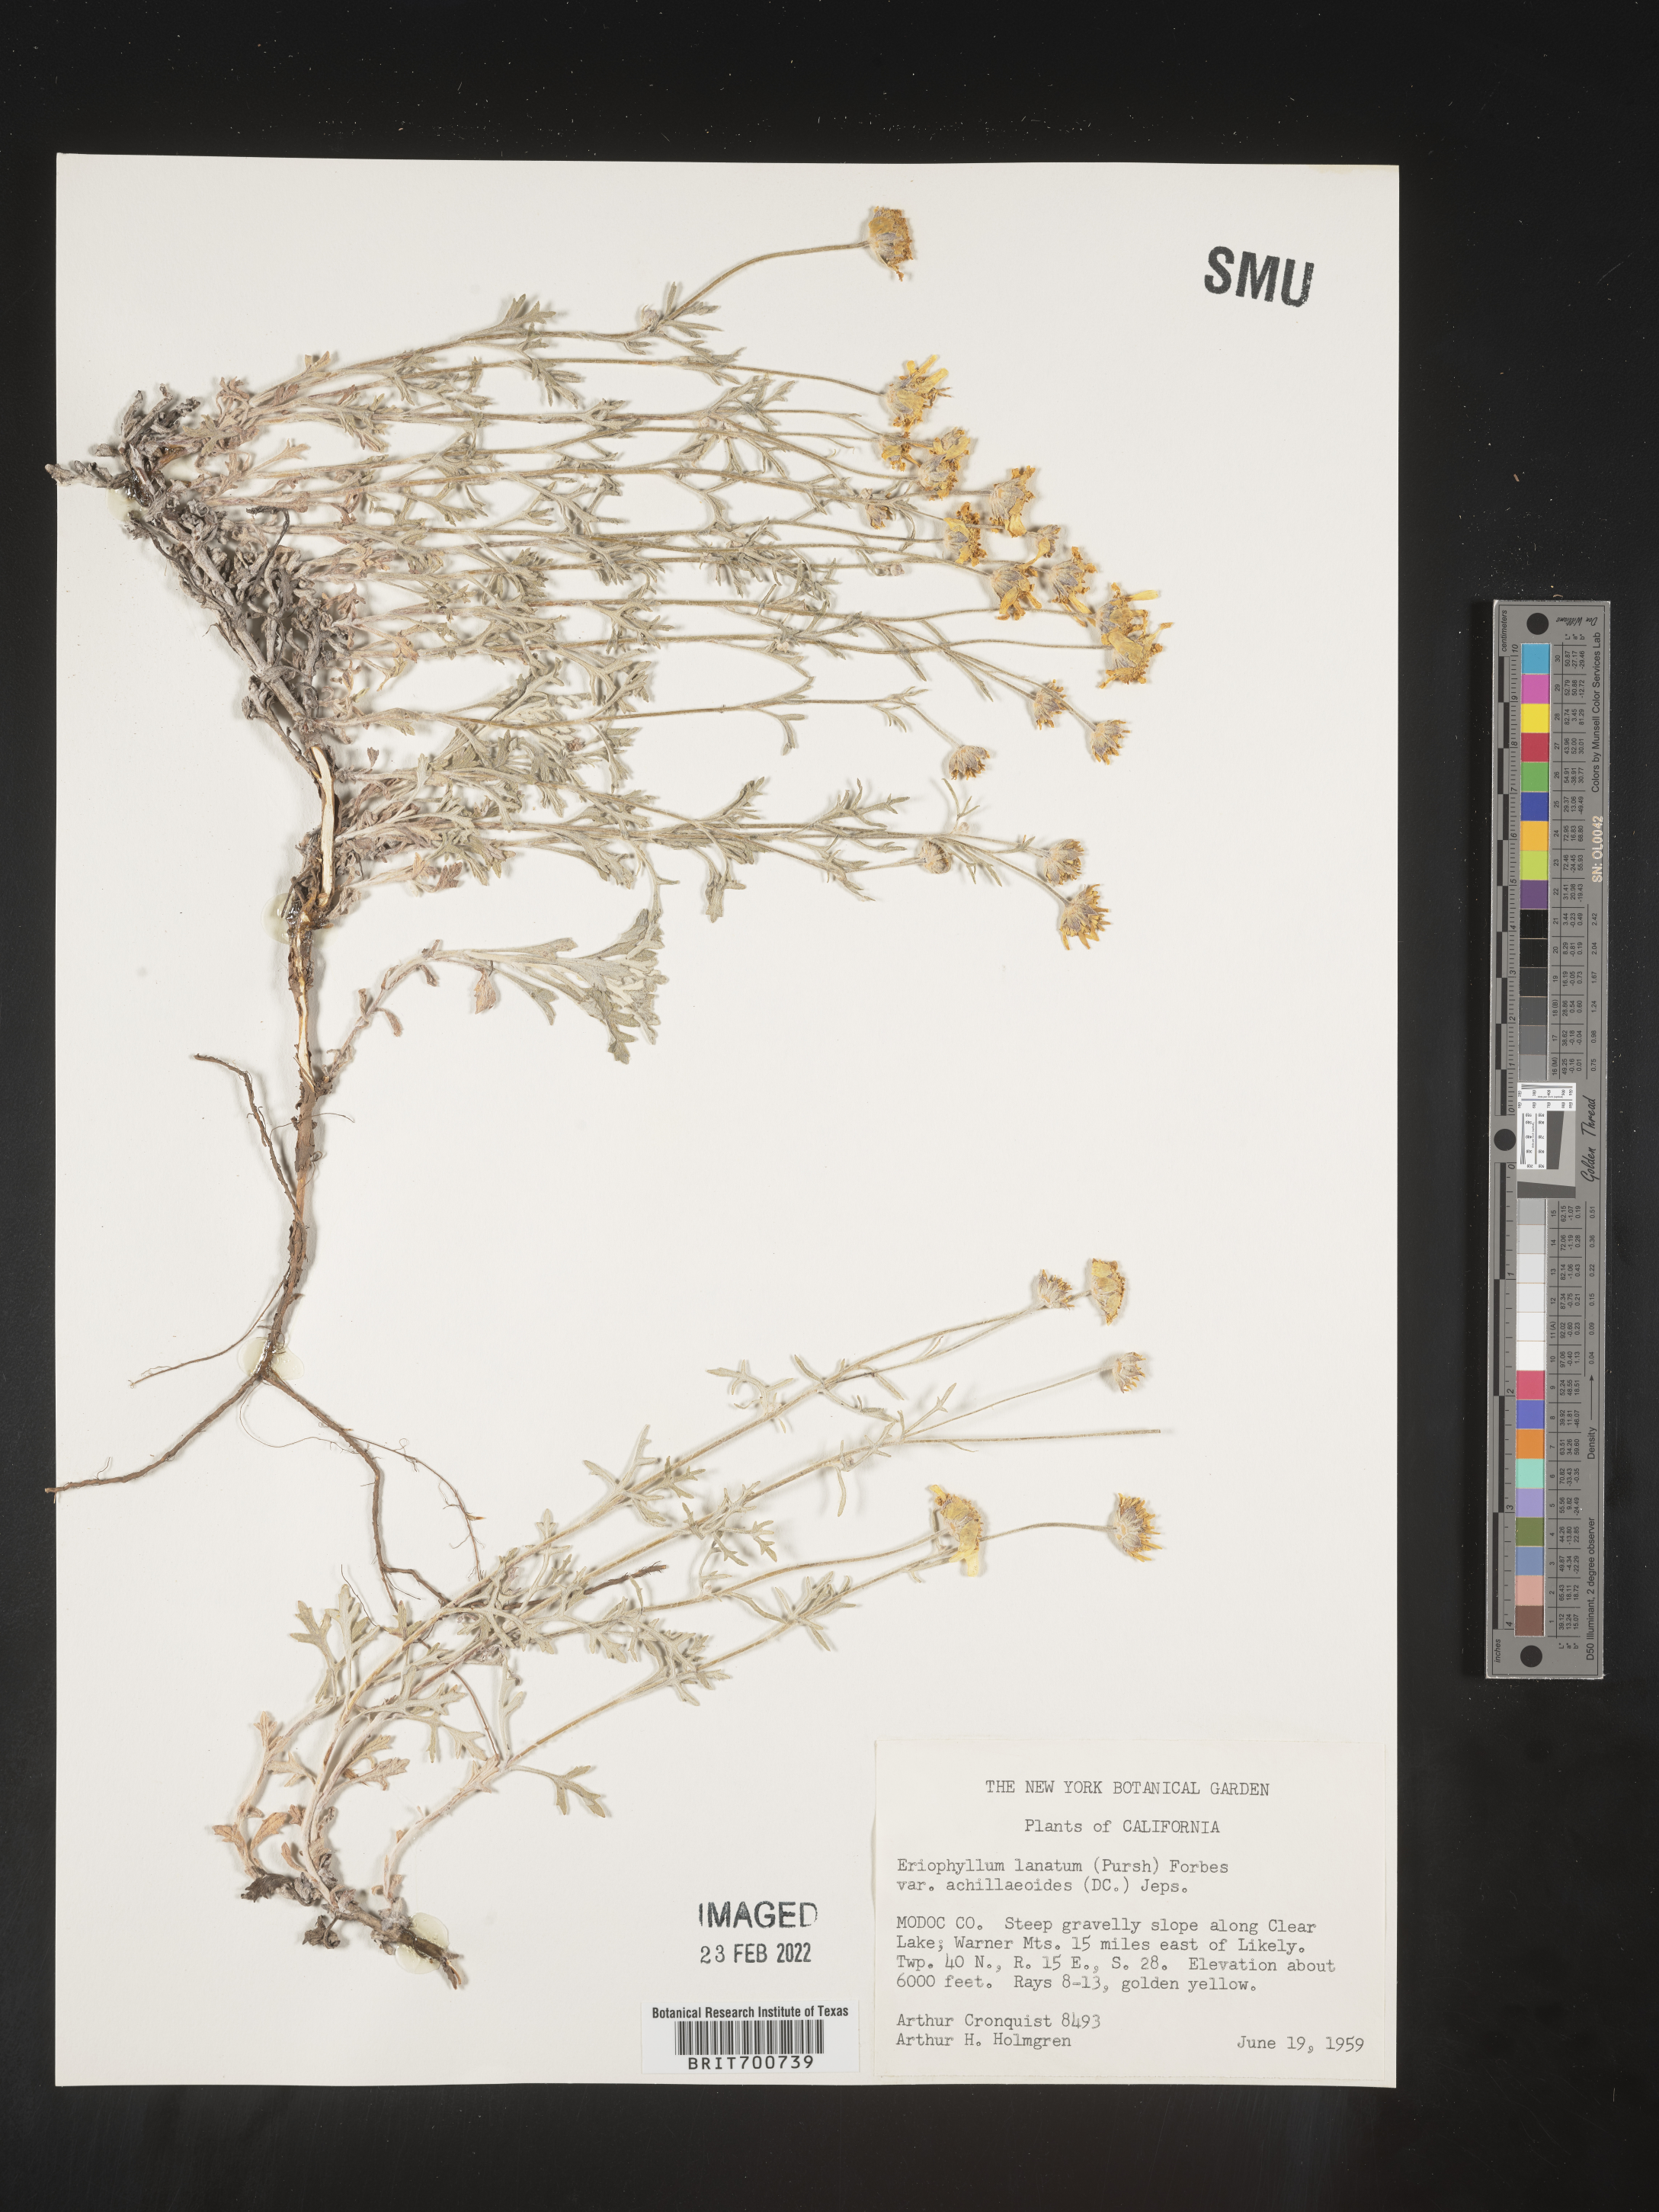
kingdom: Plantae
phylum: Tracheophyta
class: Magnoliopsida
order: Asterales
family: Asteraceae
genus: Eriophyllum
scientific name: Eriophyllum lanatum
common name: Common woolly-sunflower
